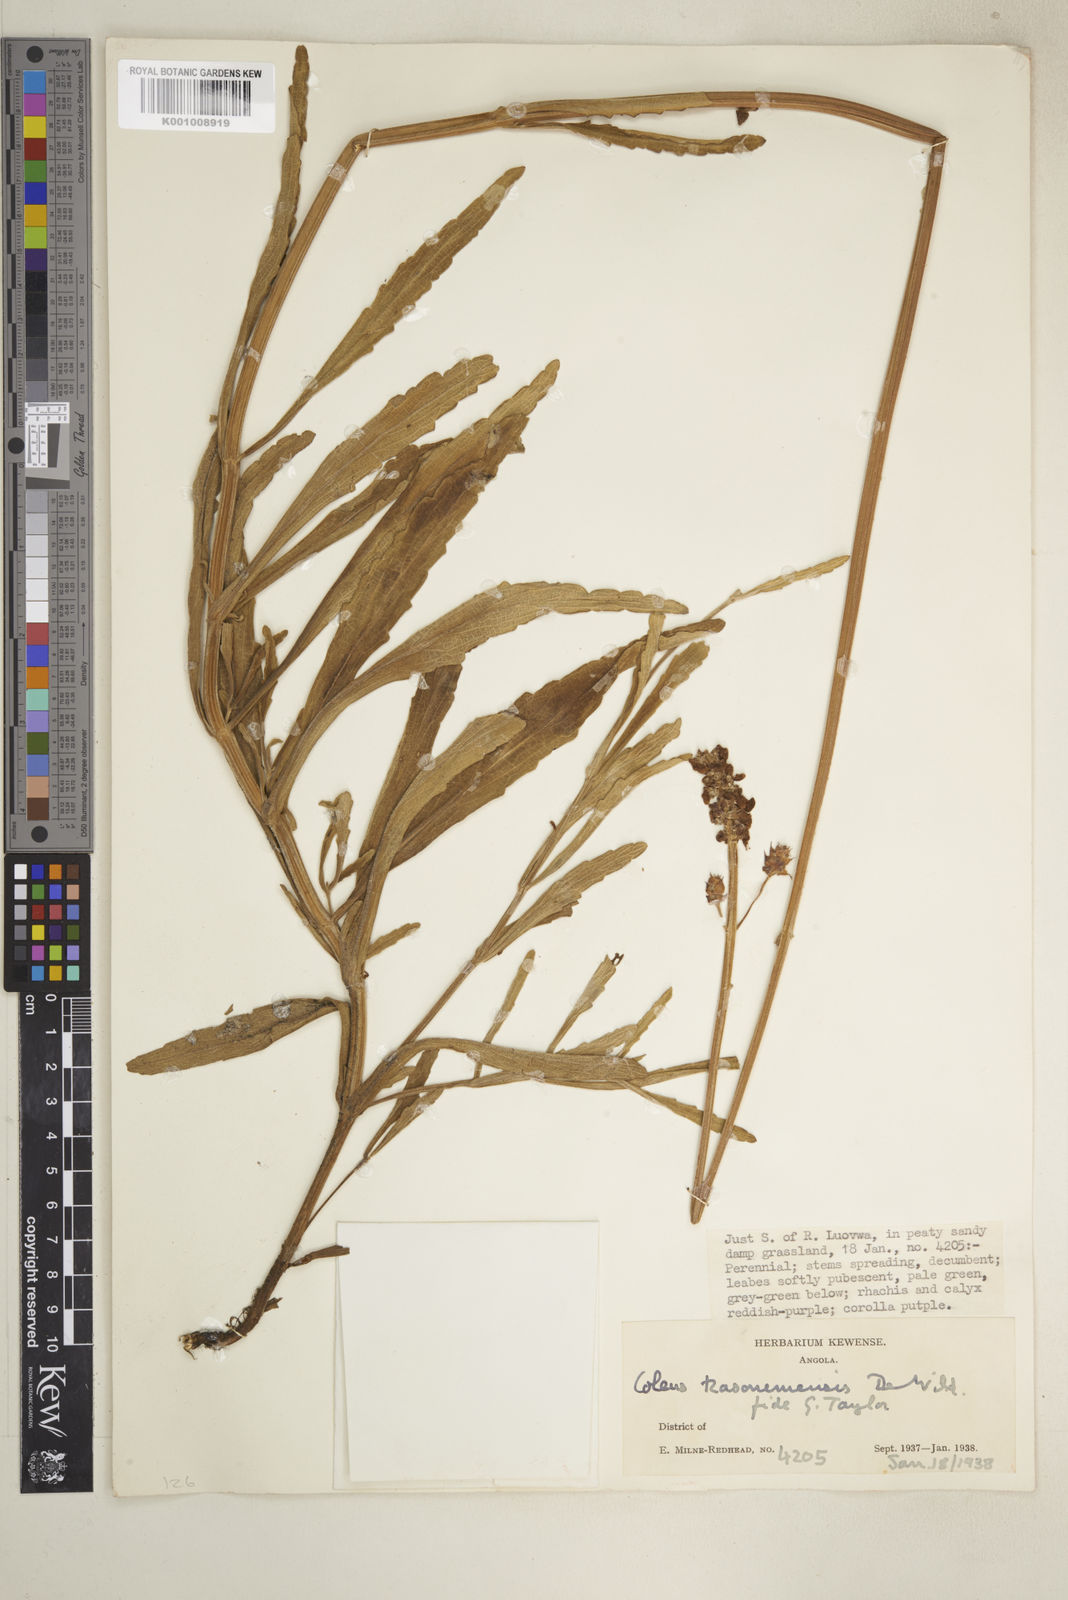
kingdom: Plantae
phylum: Tracheophyta
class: Magnoliopsida
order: Lamiales
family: Lamiaceae
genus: Coleus
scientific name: Coleus betonicifolius
